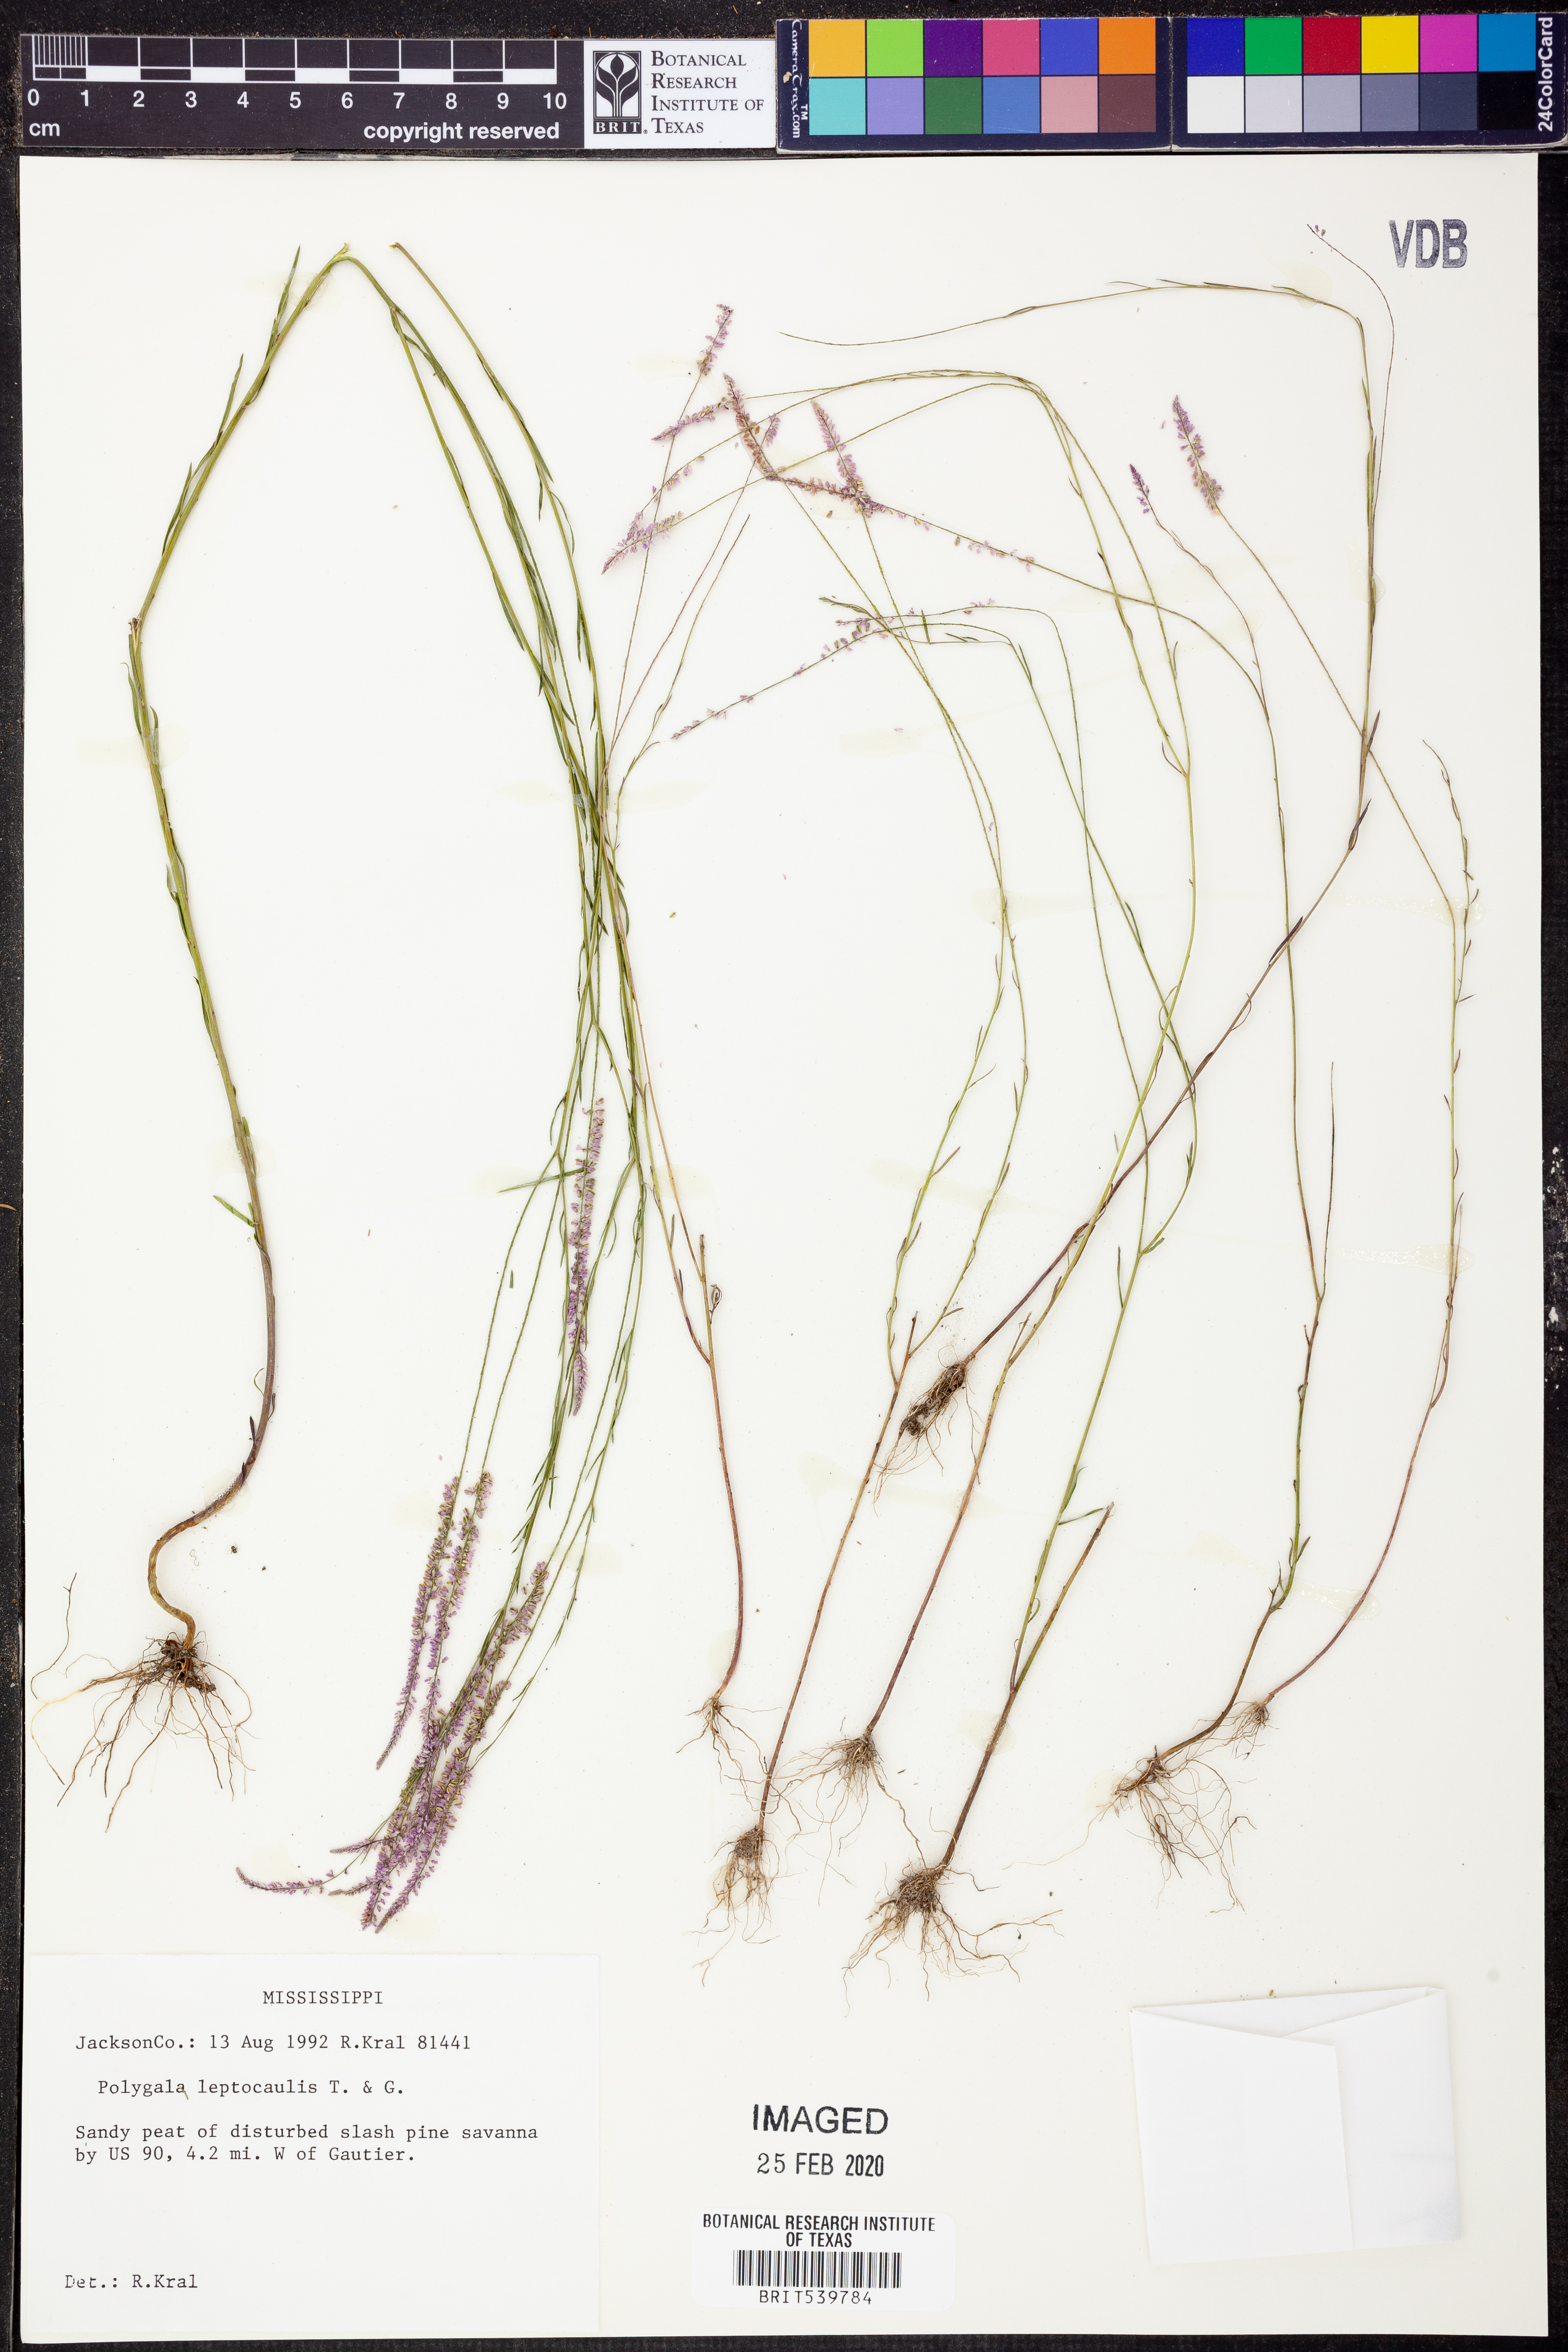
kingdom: Plantae
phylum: Tracheophyta
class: Magnoliopsida
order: Fabales
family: Polygalaceae
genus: Polygala
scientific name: Polygala tenella
